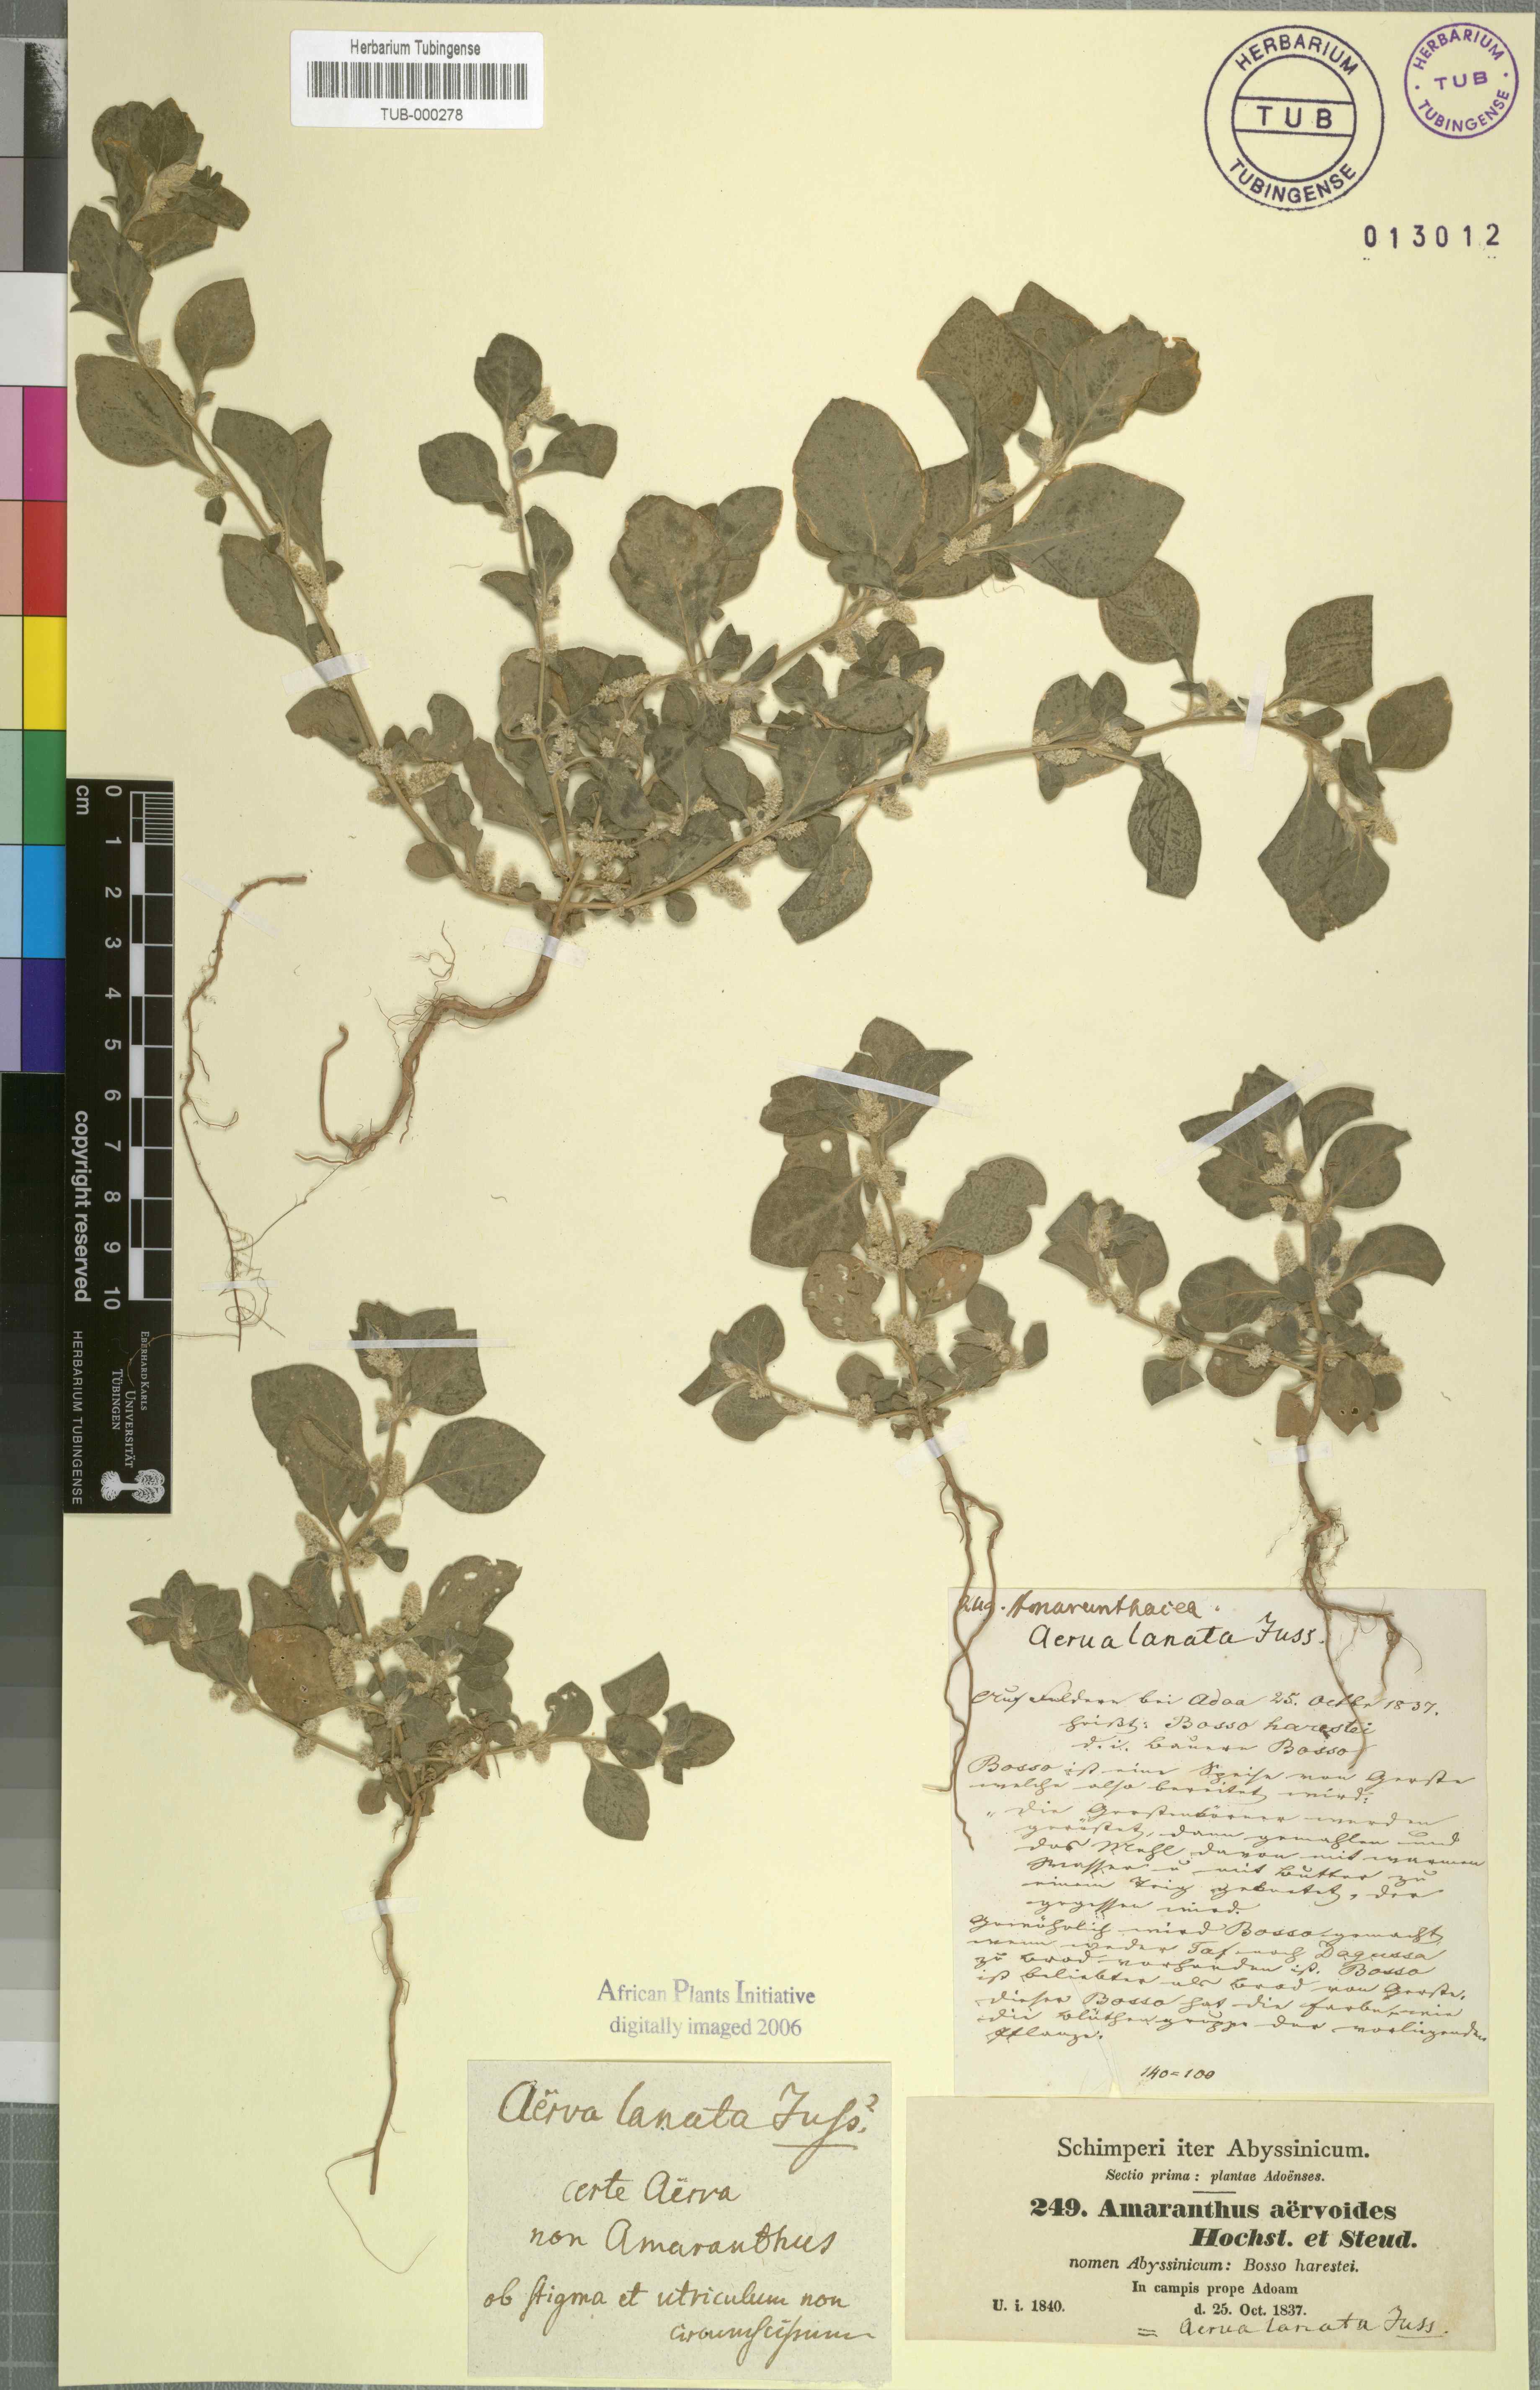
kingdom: Plantae
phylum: Tracheophyta
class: Magnoliopsida
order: Caryophyllales
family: Amaranthaceae
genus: Ouret
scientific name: Ouret lanata
